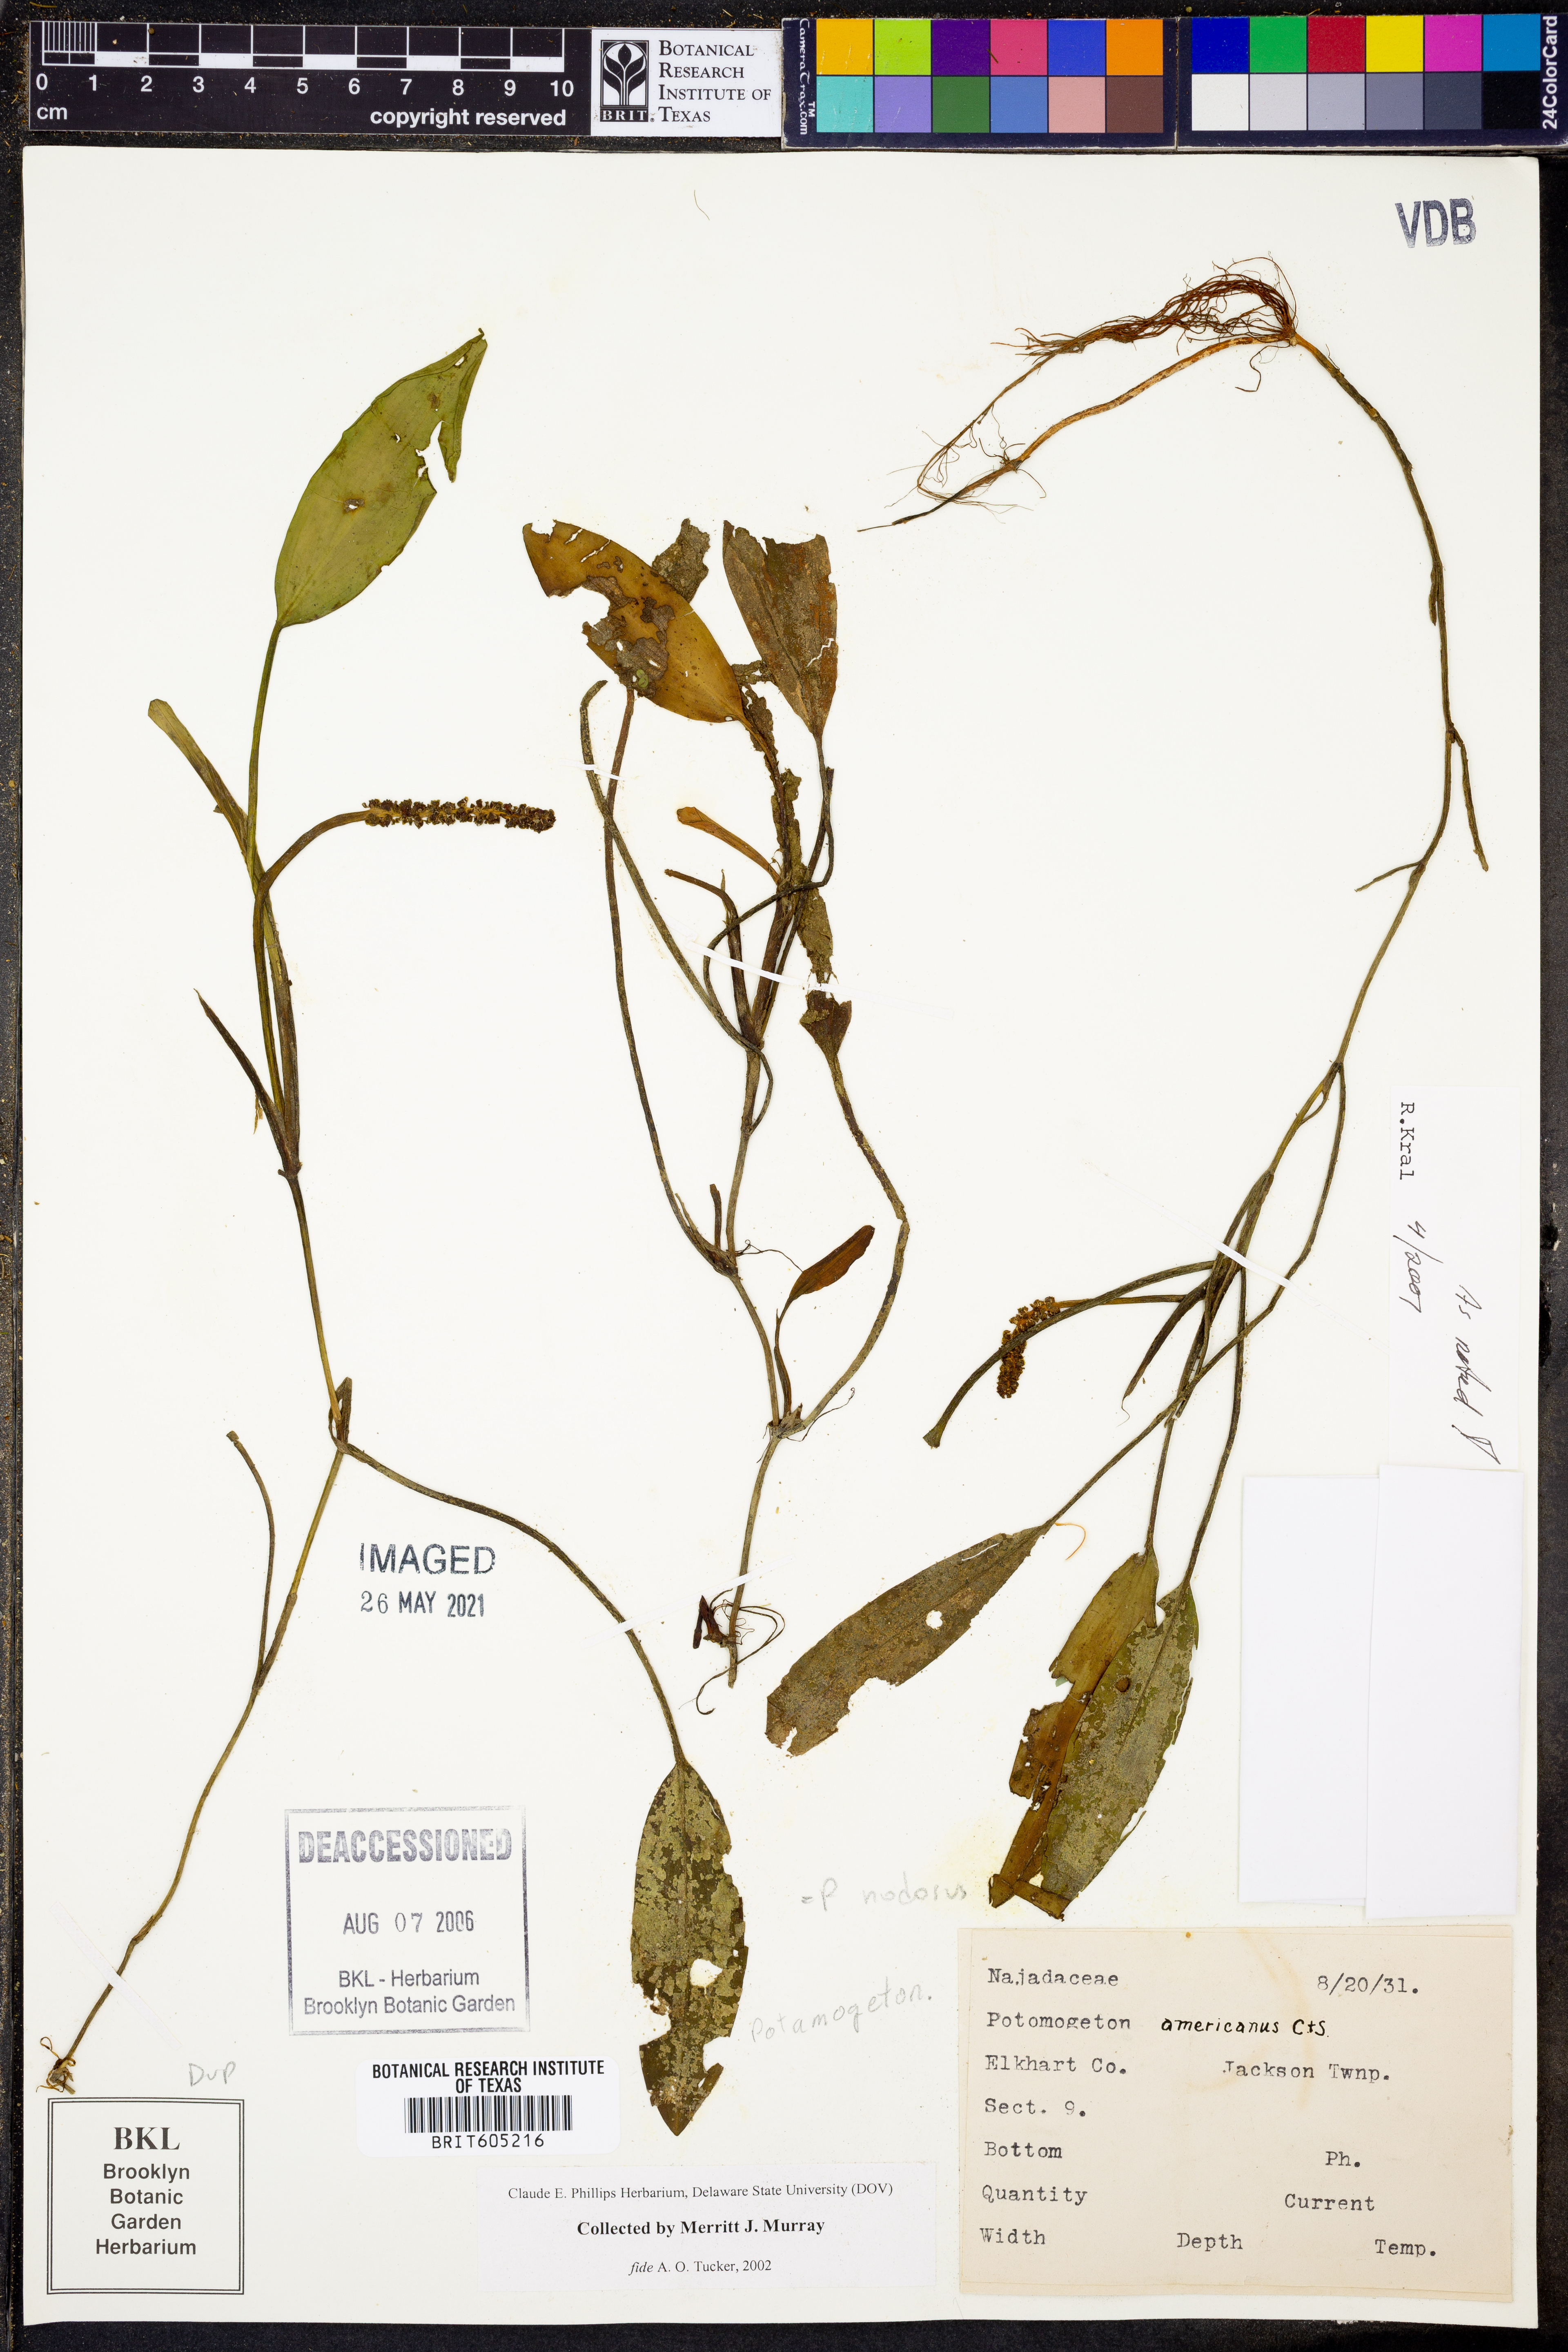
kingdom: Plantae
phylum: Tracheophyta
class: Liliopsida
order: Alismatales
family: Potamogetonaceae
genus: Potamogeton
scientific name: Potamogeton nodosus
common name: Loddon pondweed
